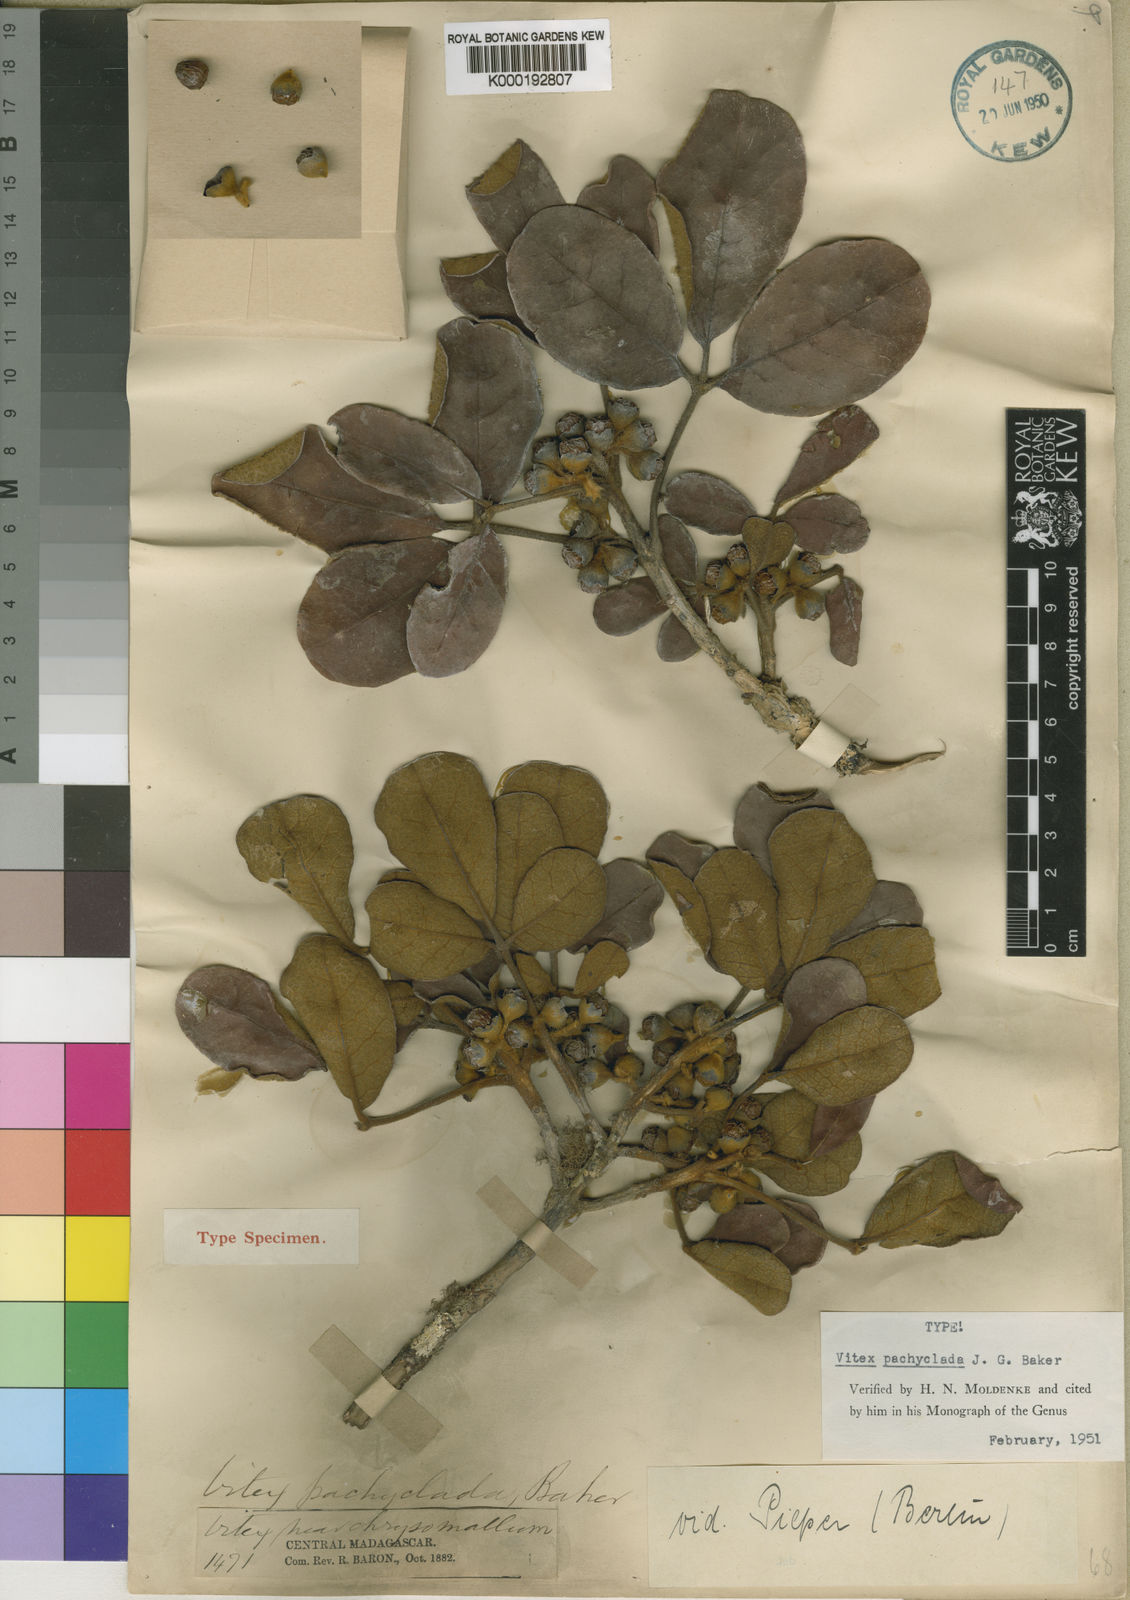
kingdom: Plantae
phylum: Tracheophyta
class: Magnoliopsida
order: Lamiales
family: Lamiaceae
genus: Vitex
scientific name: Vitex pachyclada
